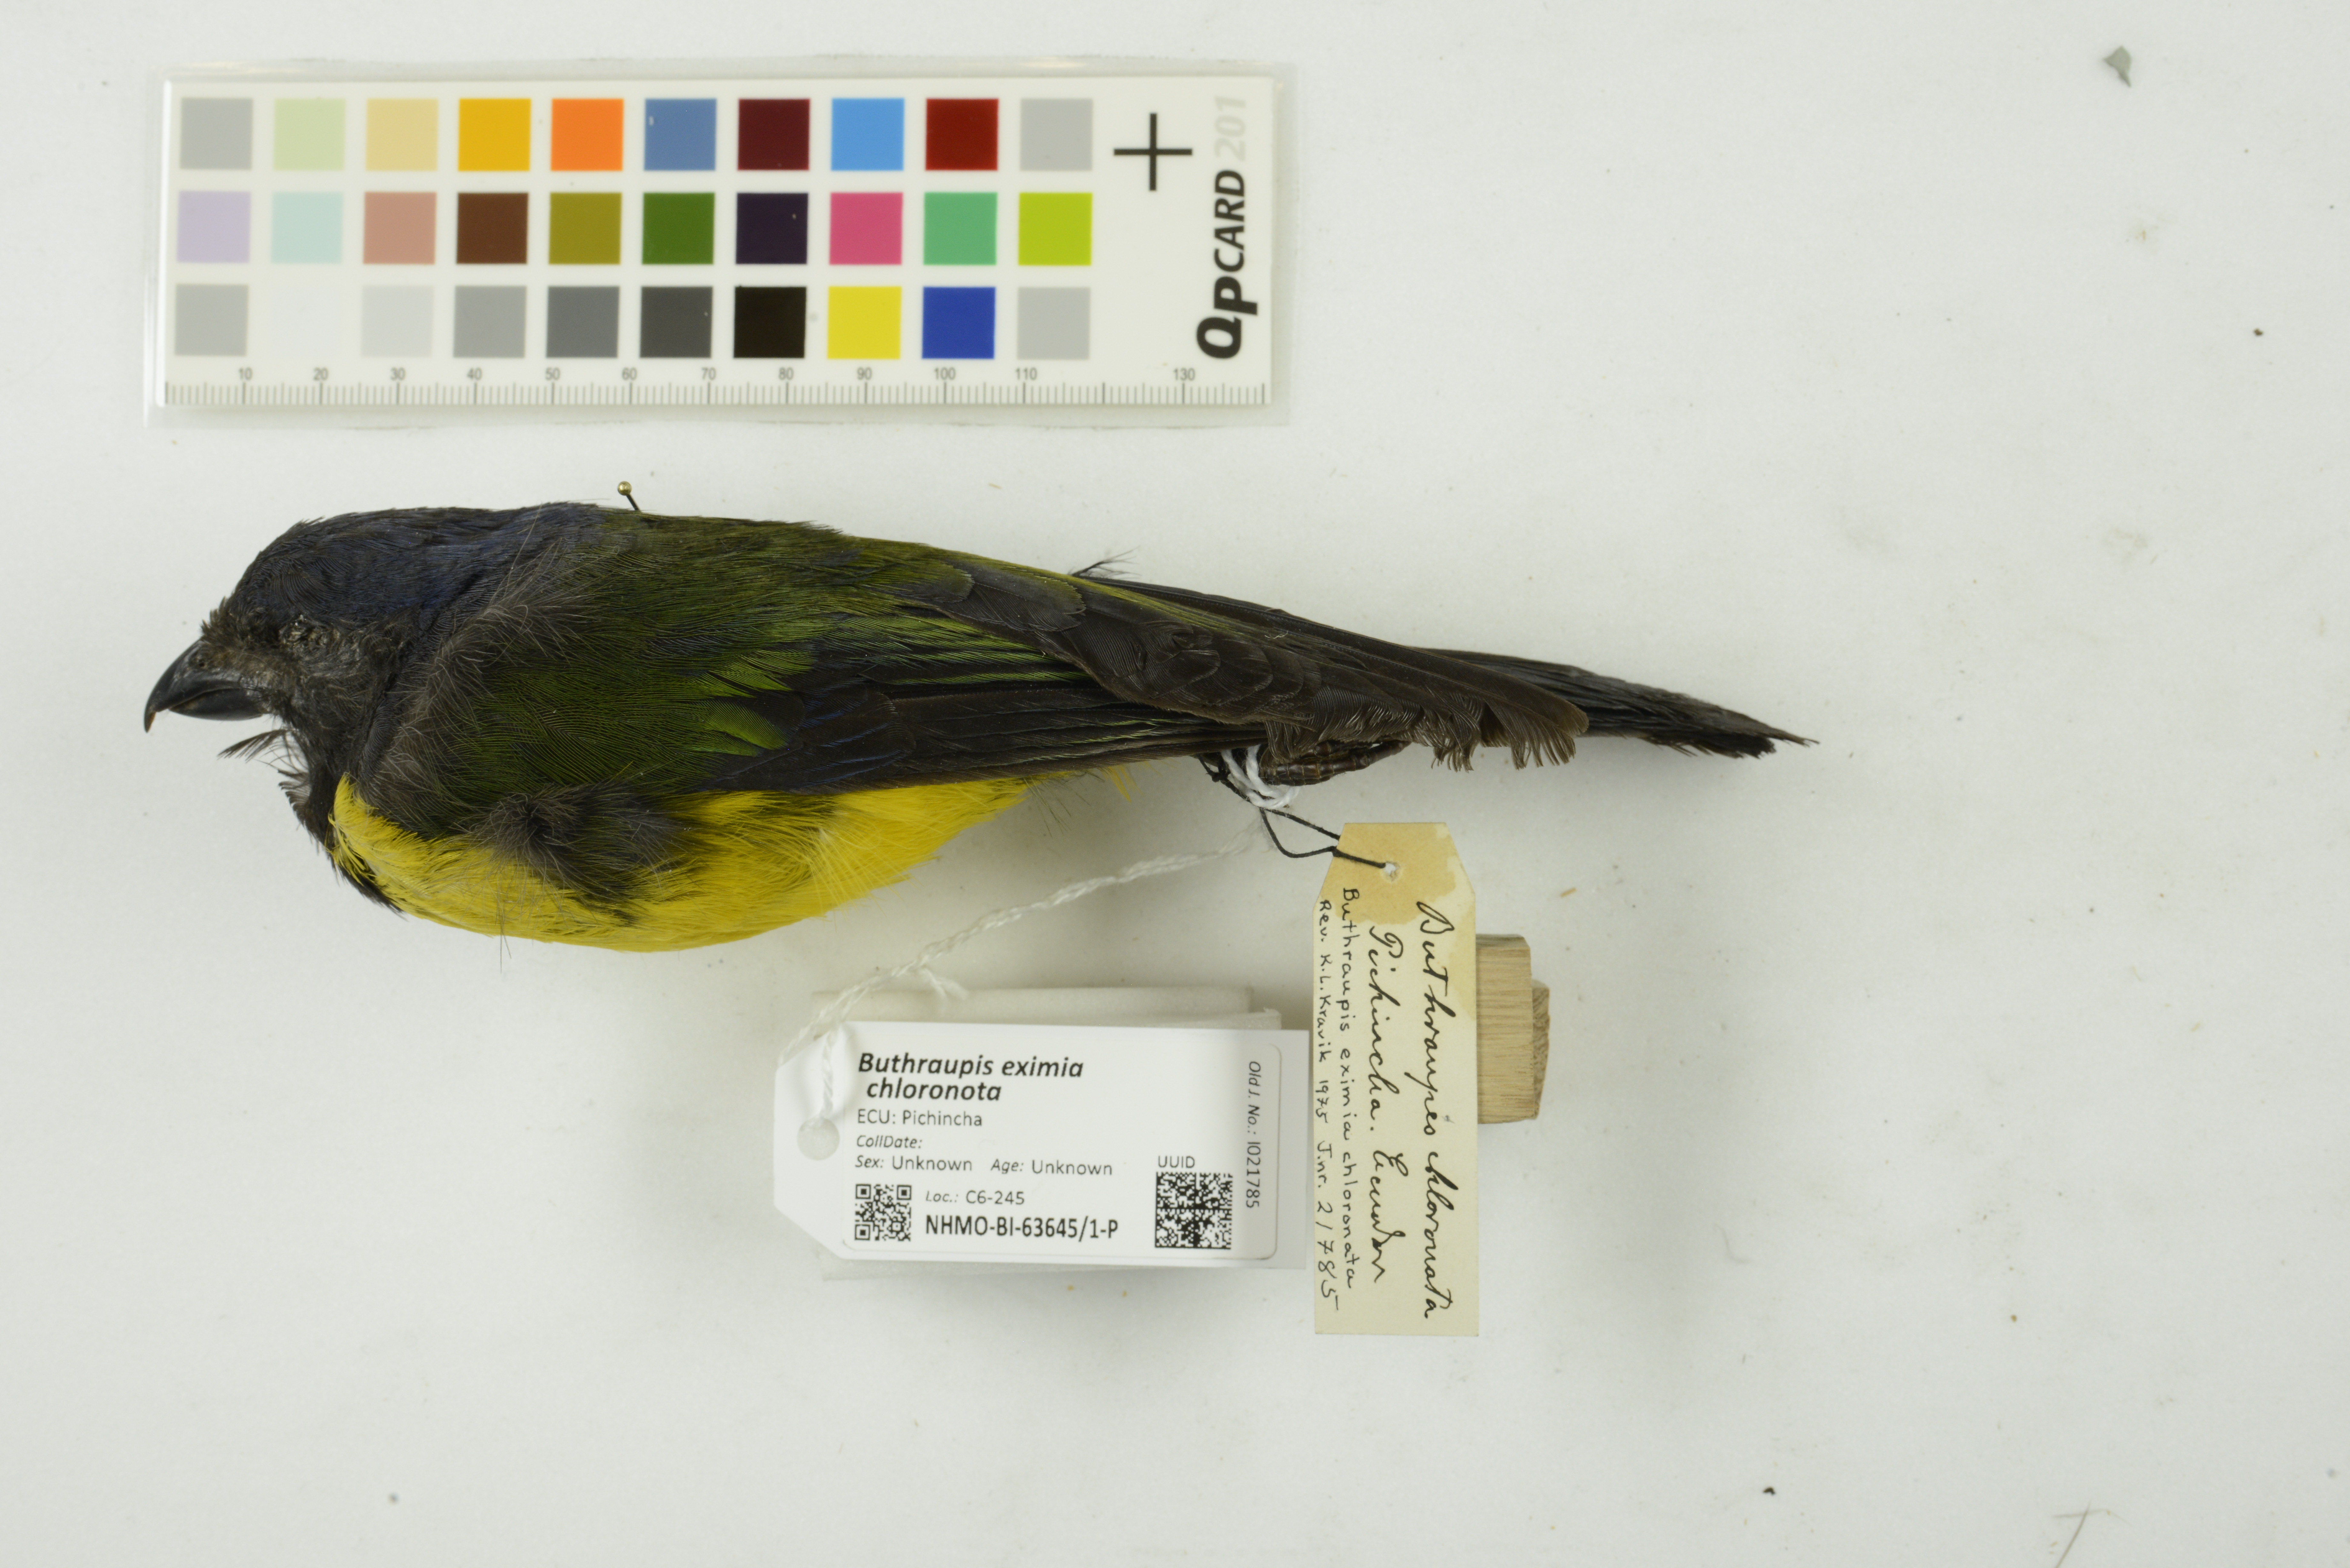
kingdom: Animalia
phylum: Chordata
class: Aves
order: Passeriformes
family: Thraupidae
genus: Cnemathraupis
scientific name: Cnemathraupis eximia
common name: Black-chested mountain-tanager
